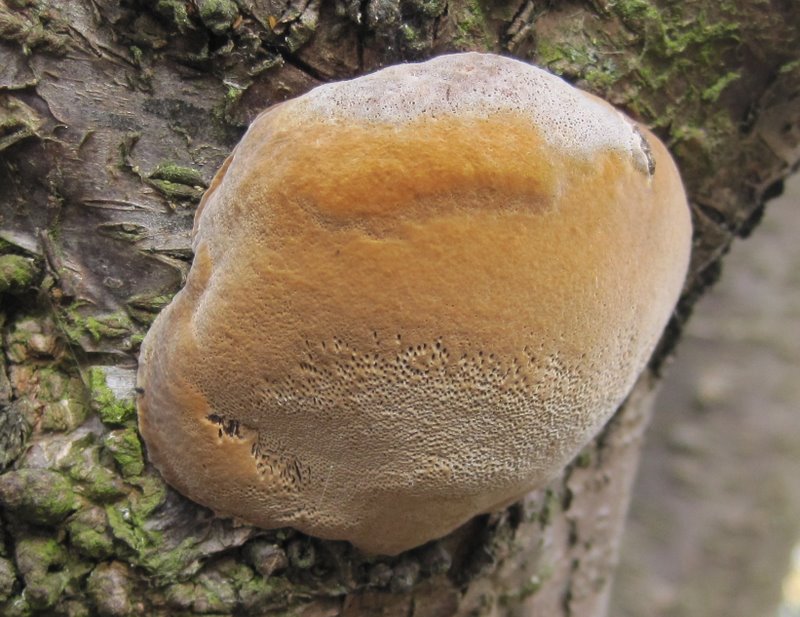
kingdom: Fungi
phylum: Basidiomycota
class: Agaricomycetes
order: Hymenochaetales
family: Hymenochaetaceae
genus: Phellinus
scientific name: Phellinus pomaceus
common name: blomme-ildporesvamp
